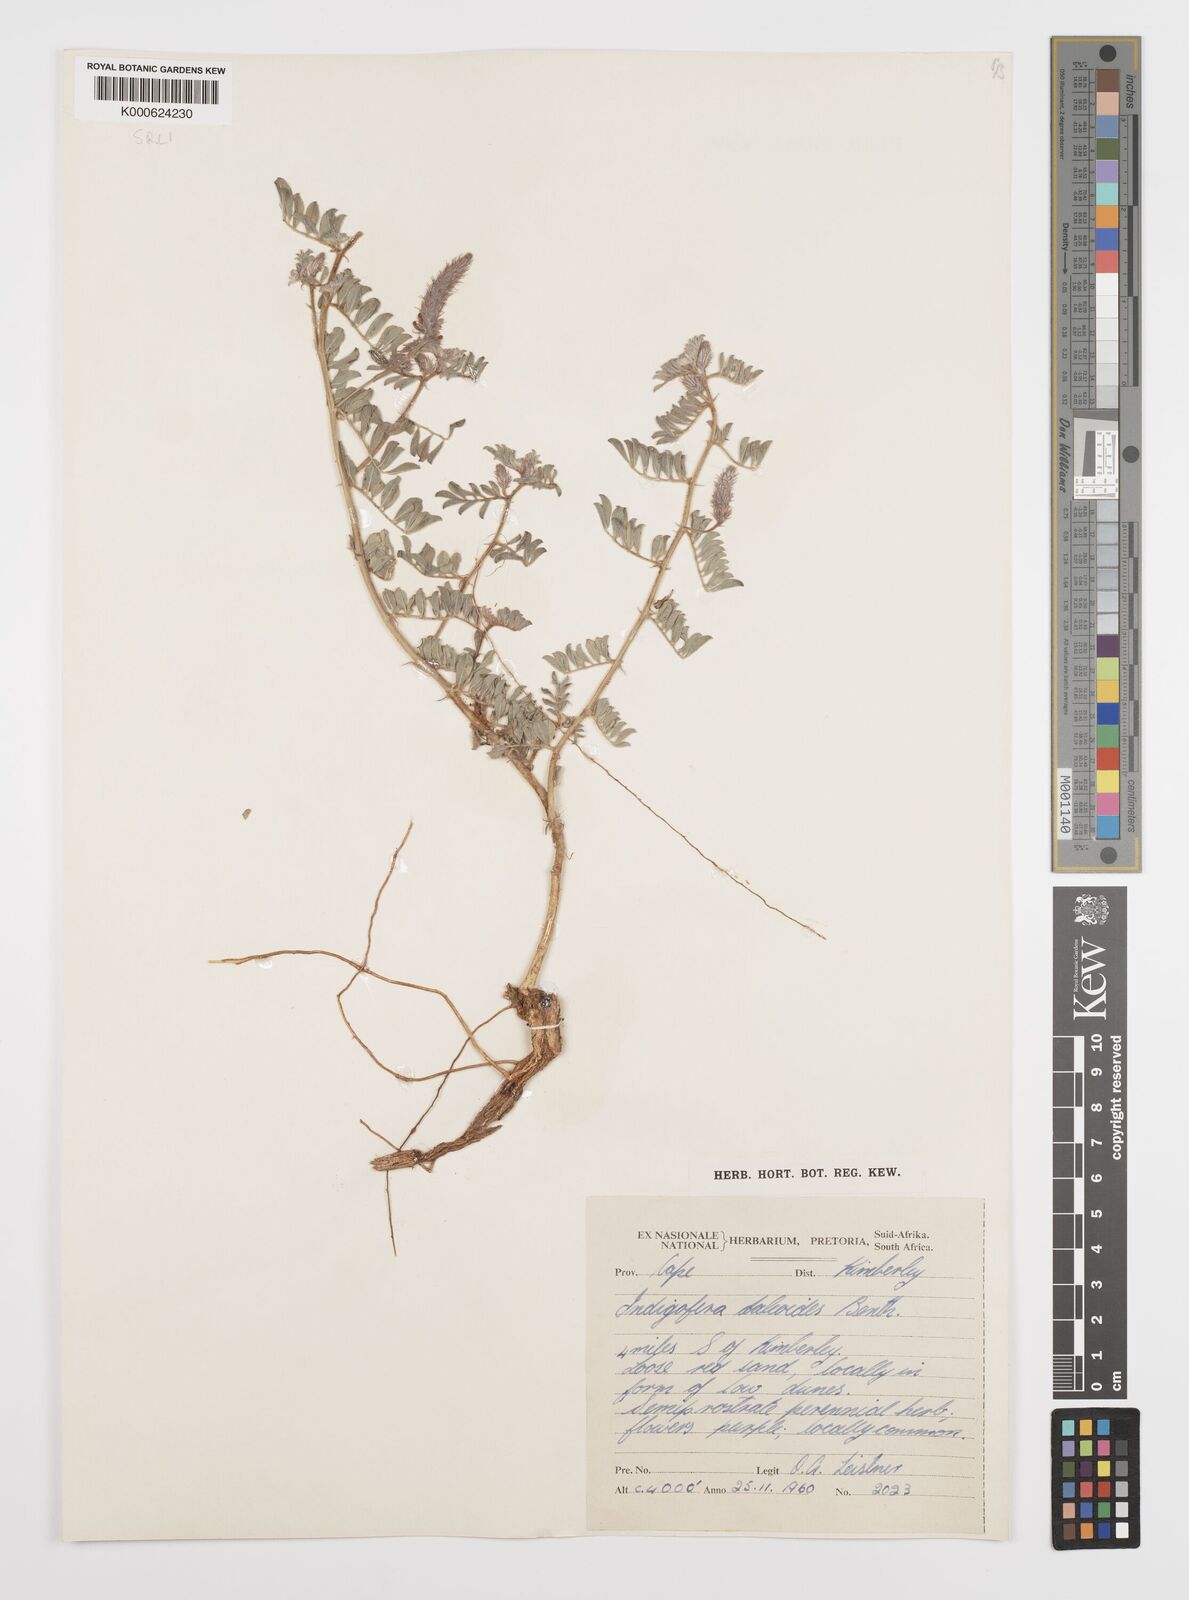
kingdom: Plantae
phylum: Tracheophyta
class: Magnoliopsida
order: Fabales
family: Fabaceae
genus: Indigofera
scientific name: Indigofera daleoides
